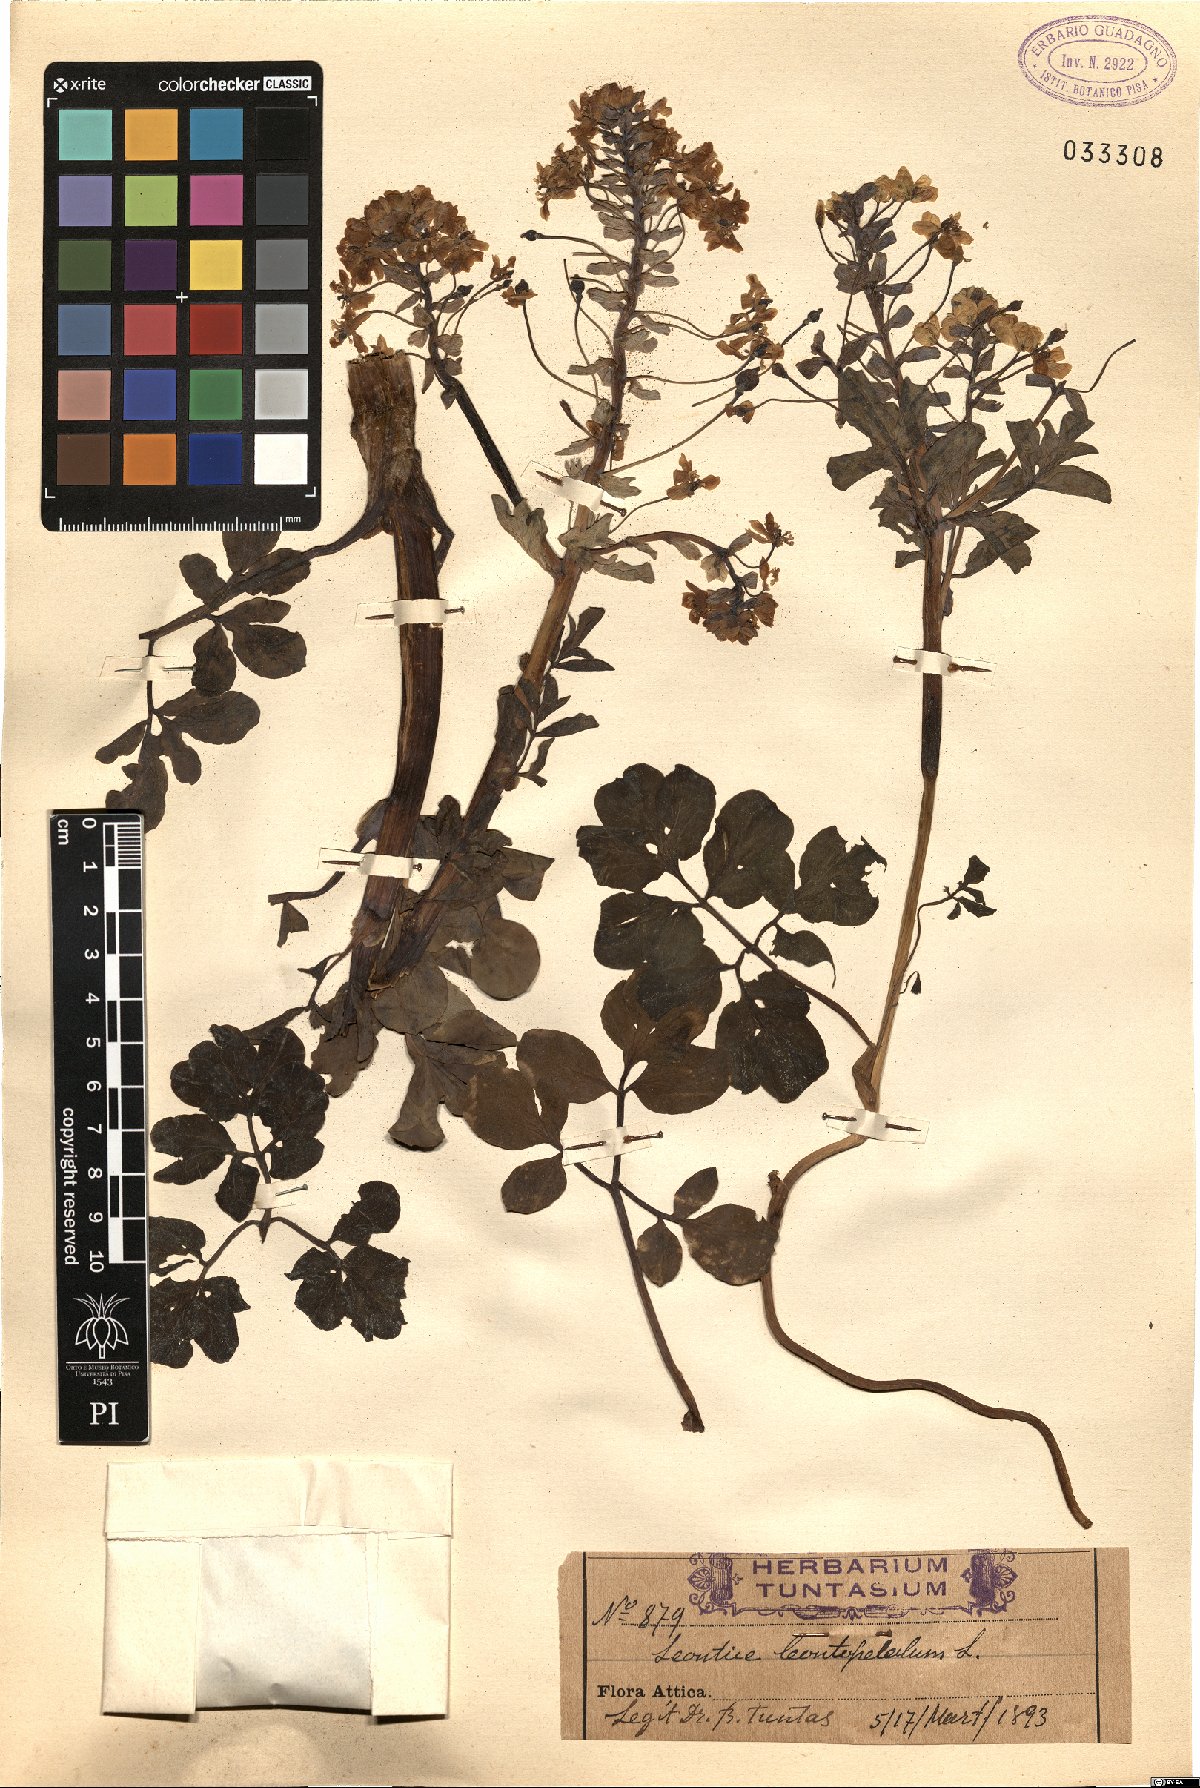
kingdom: Plantae
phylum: Tracheophyta
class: Magnoliopsida
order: Ranunculales
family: Berberidaceae
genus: Leontice
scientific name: Leontice leontopetalum
